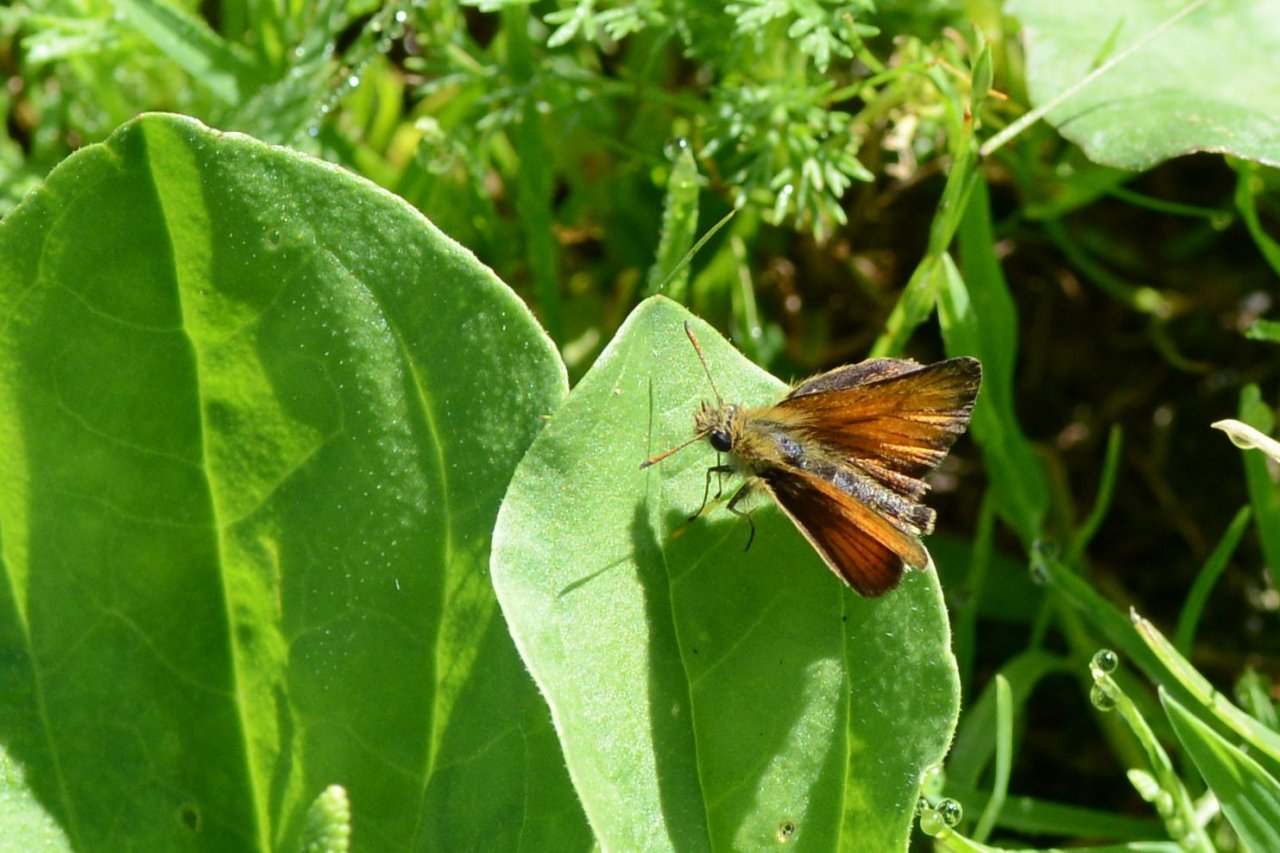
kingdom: Animalia
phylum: Arthropoda
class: Insecta
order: Lepidoptera
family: Hesperiidae
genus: Thymelicus
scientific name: Thymelicus lineola
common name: European Skipper
